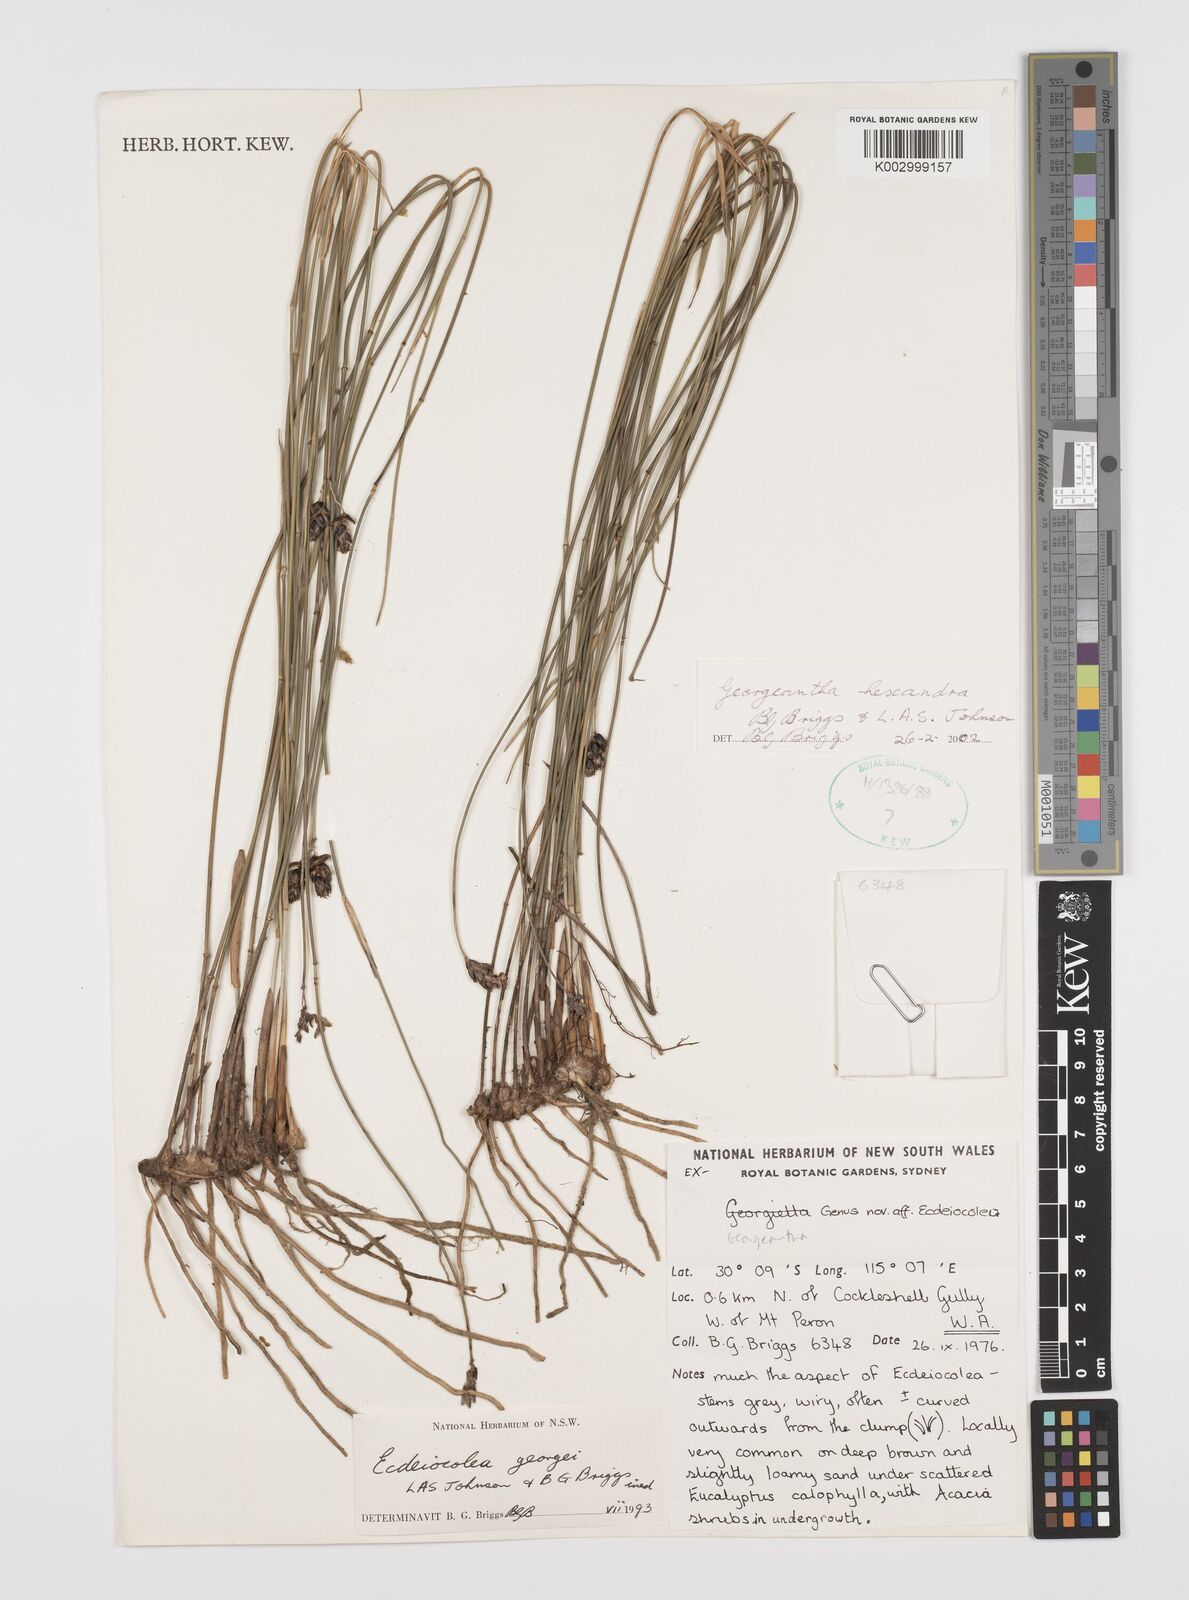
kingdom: Plantae
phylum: Tracheophyta
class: Liliopsida
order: Poales
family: Ecdeiocoleaceae
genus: Georgeantha
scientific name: Georgeantha hexandra
